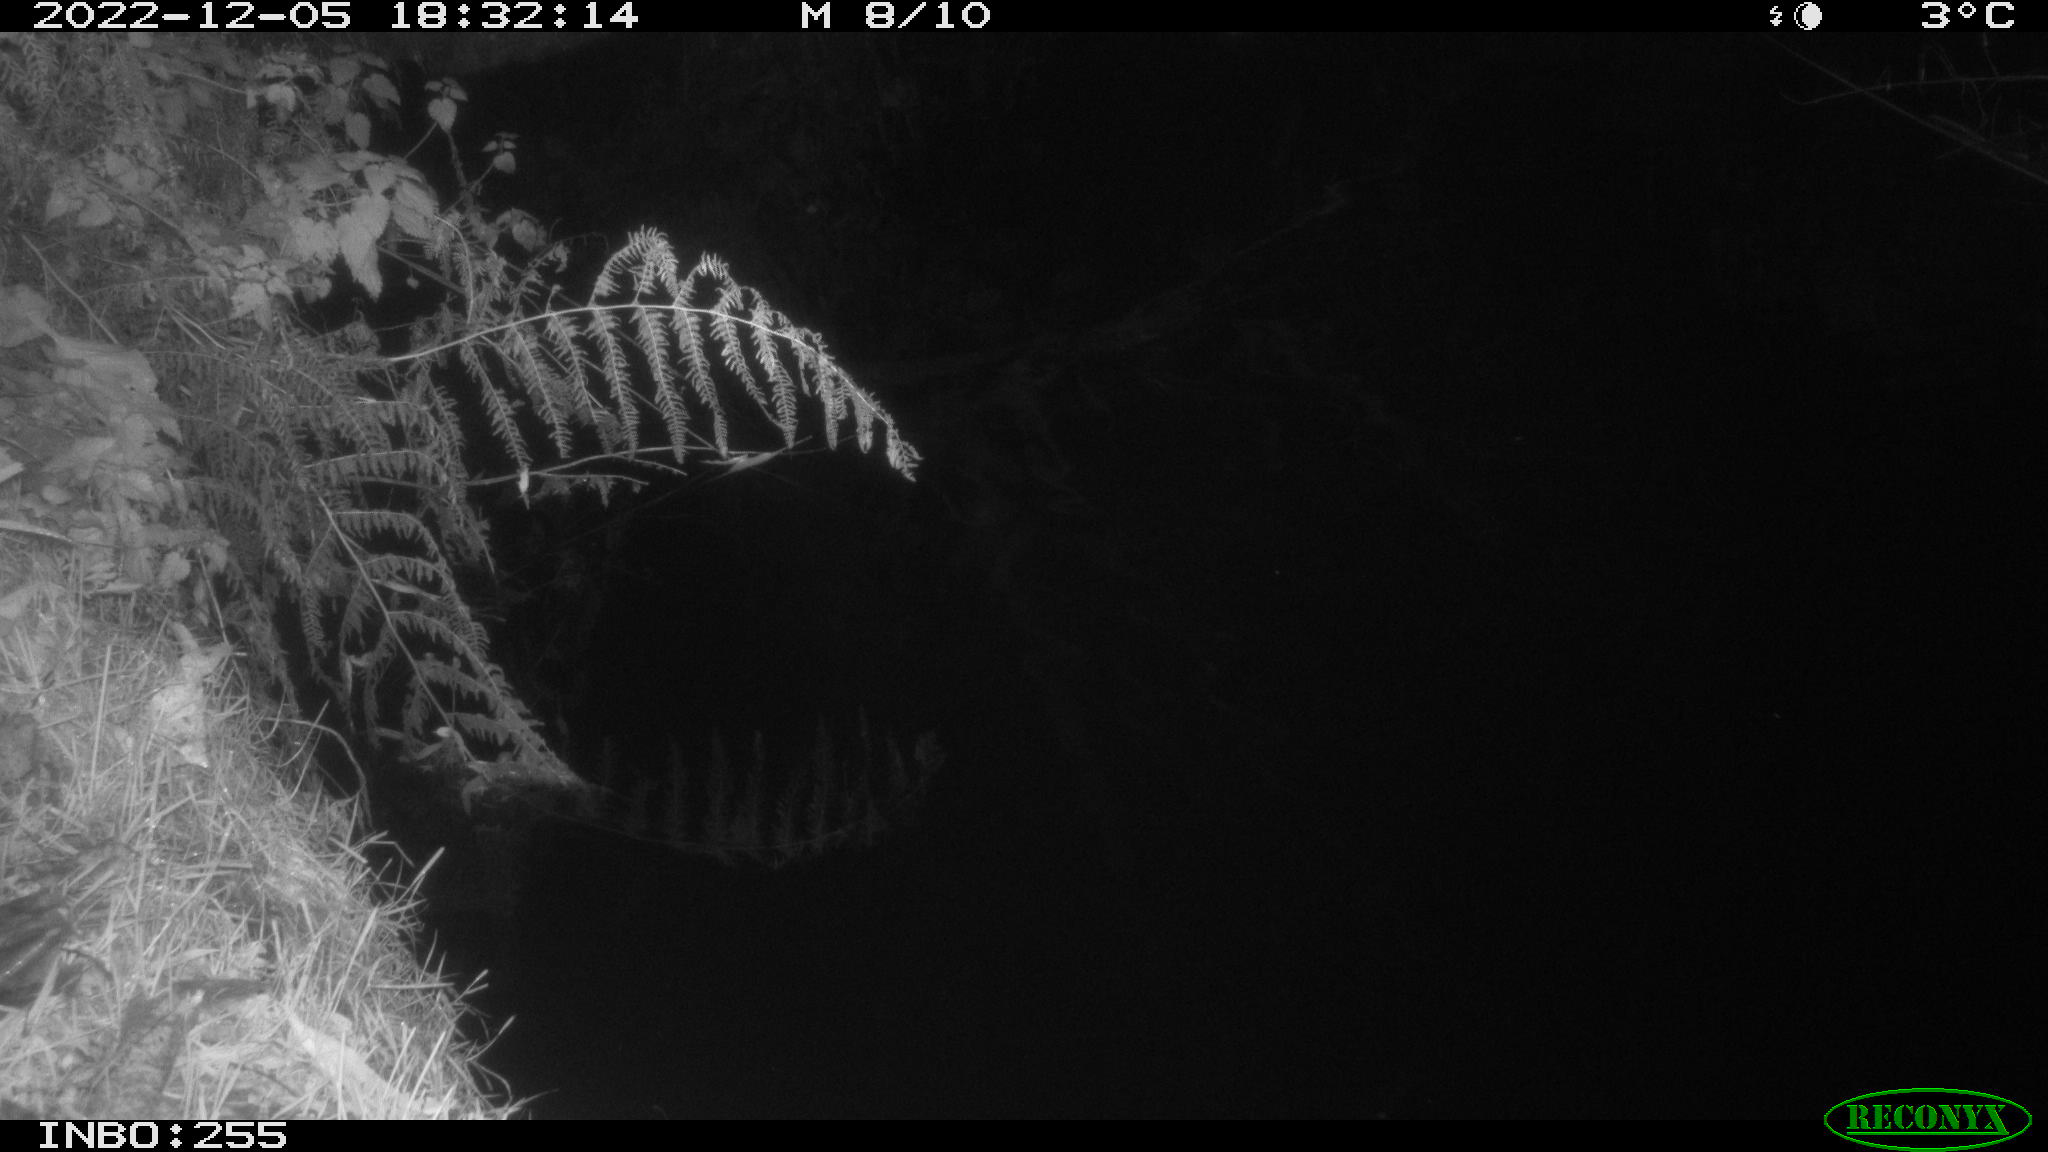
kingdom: Animalia
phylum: Chordata
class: Mammalia
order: Rodentia
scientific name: Rodentia
